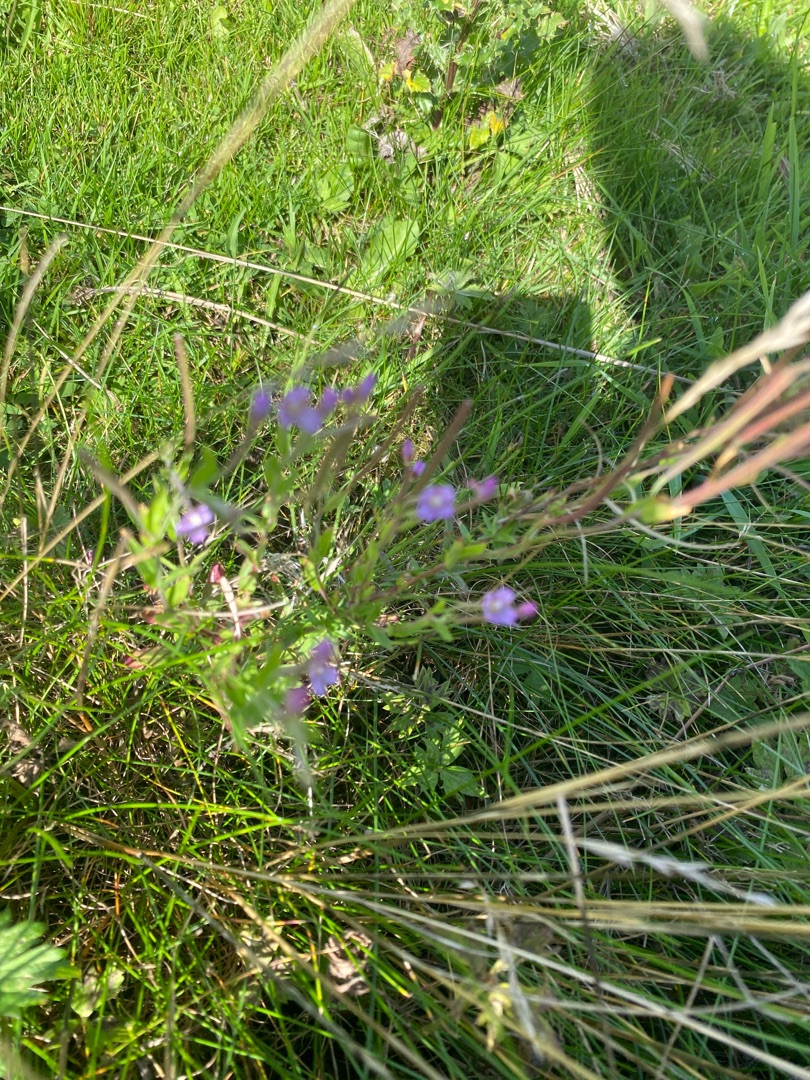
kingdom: Plantae
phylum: Tracheophyta
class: Magnoliopsida
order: Myrtales
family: Onagraceae
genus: Epilobium
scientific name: Epilobium
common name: Dueurtslægten
